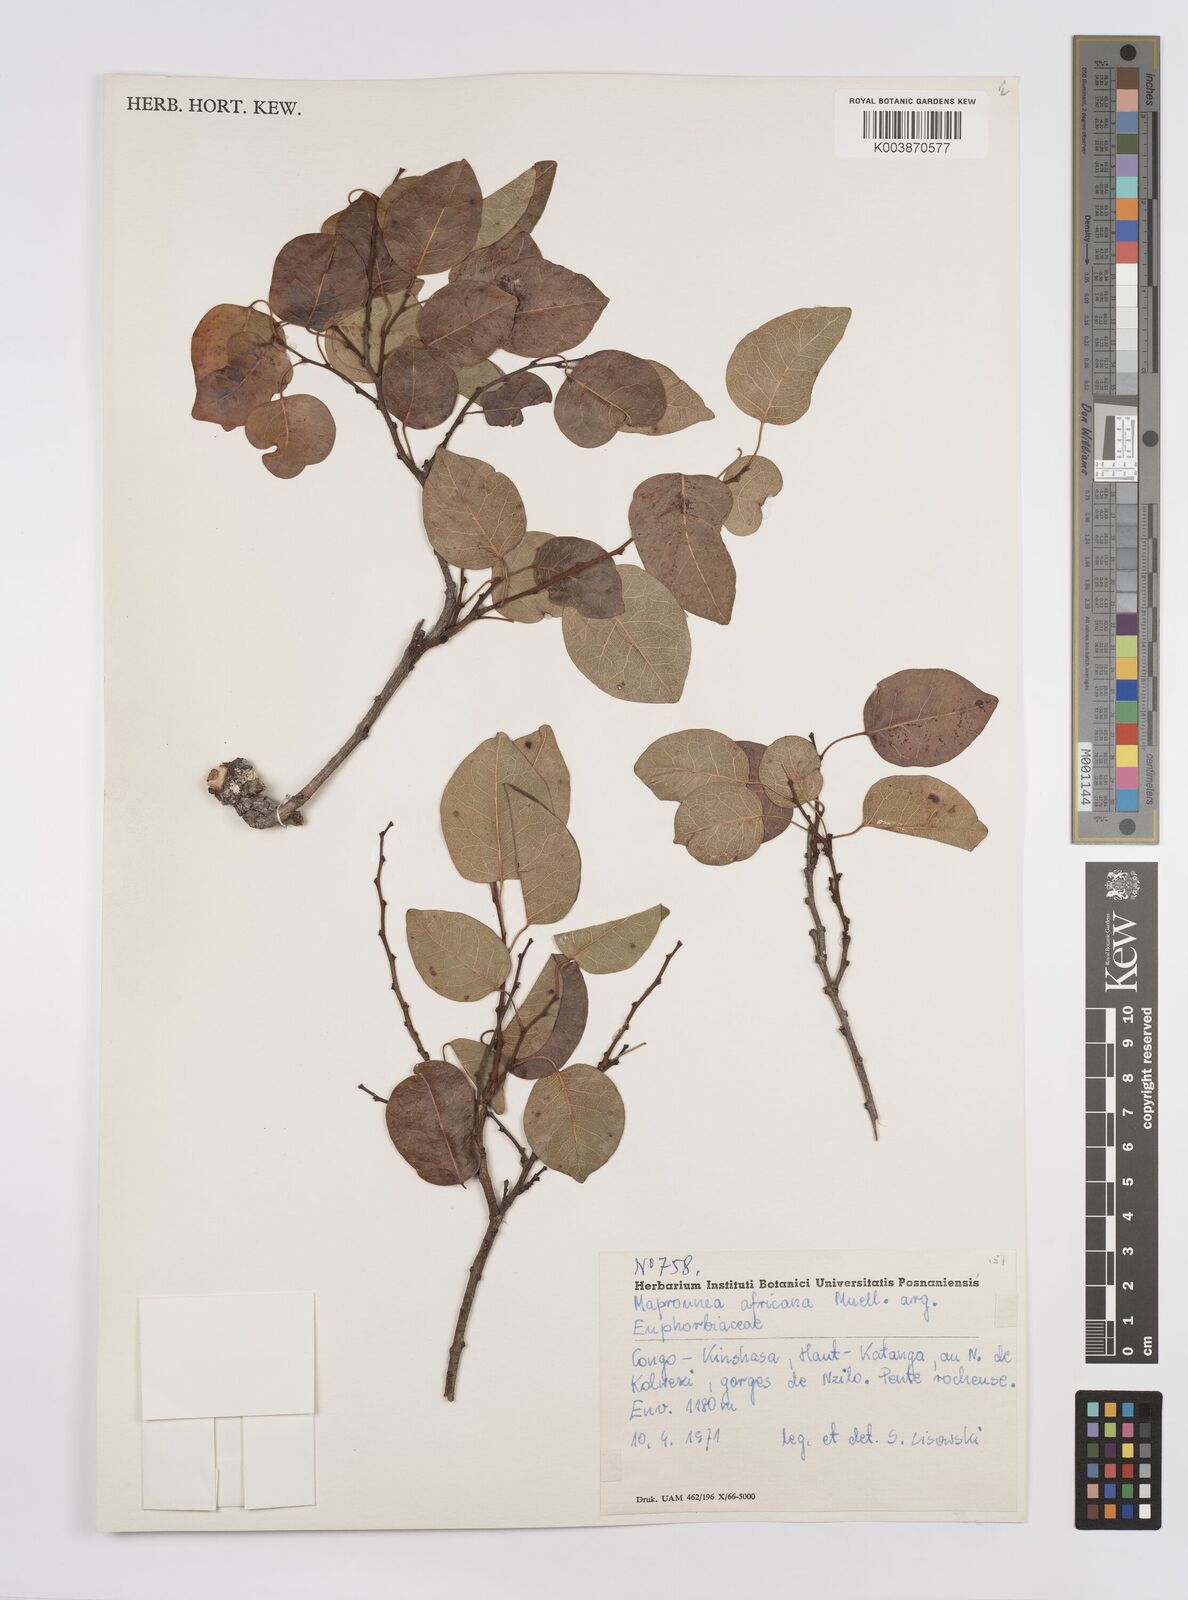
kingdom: Plantae
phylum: Tracheophyta
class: Magnoliopsida
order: Malpighiales
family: Euphorbiaceae
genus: Maprounea
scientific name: Maprounea africana
